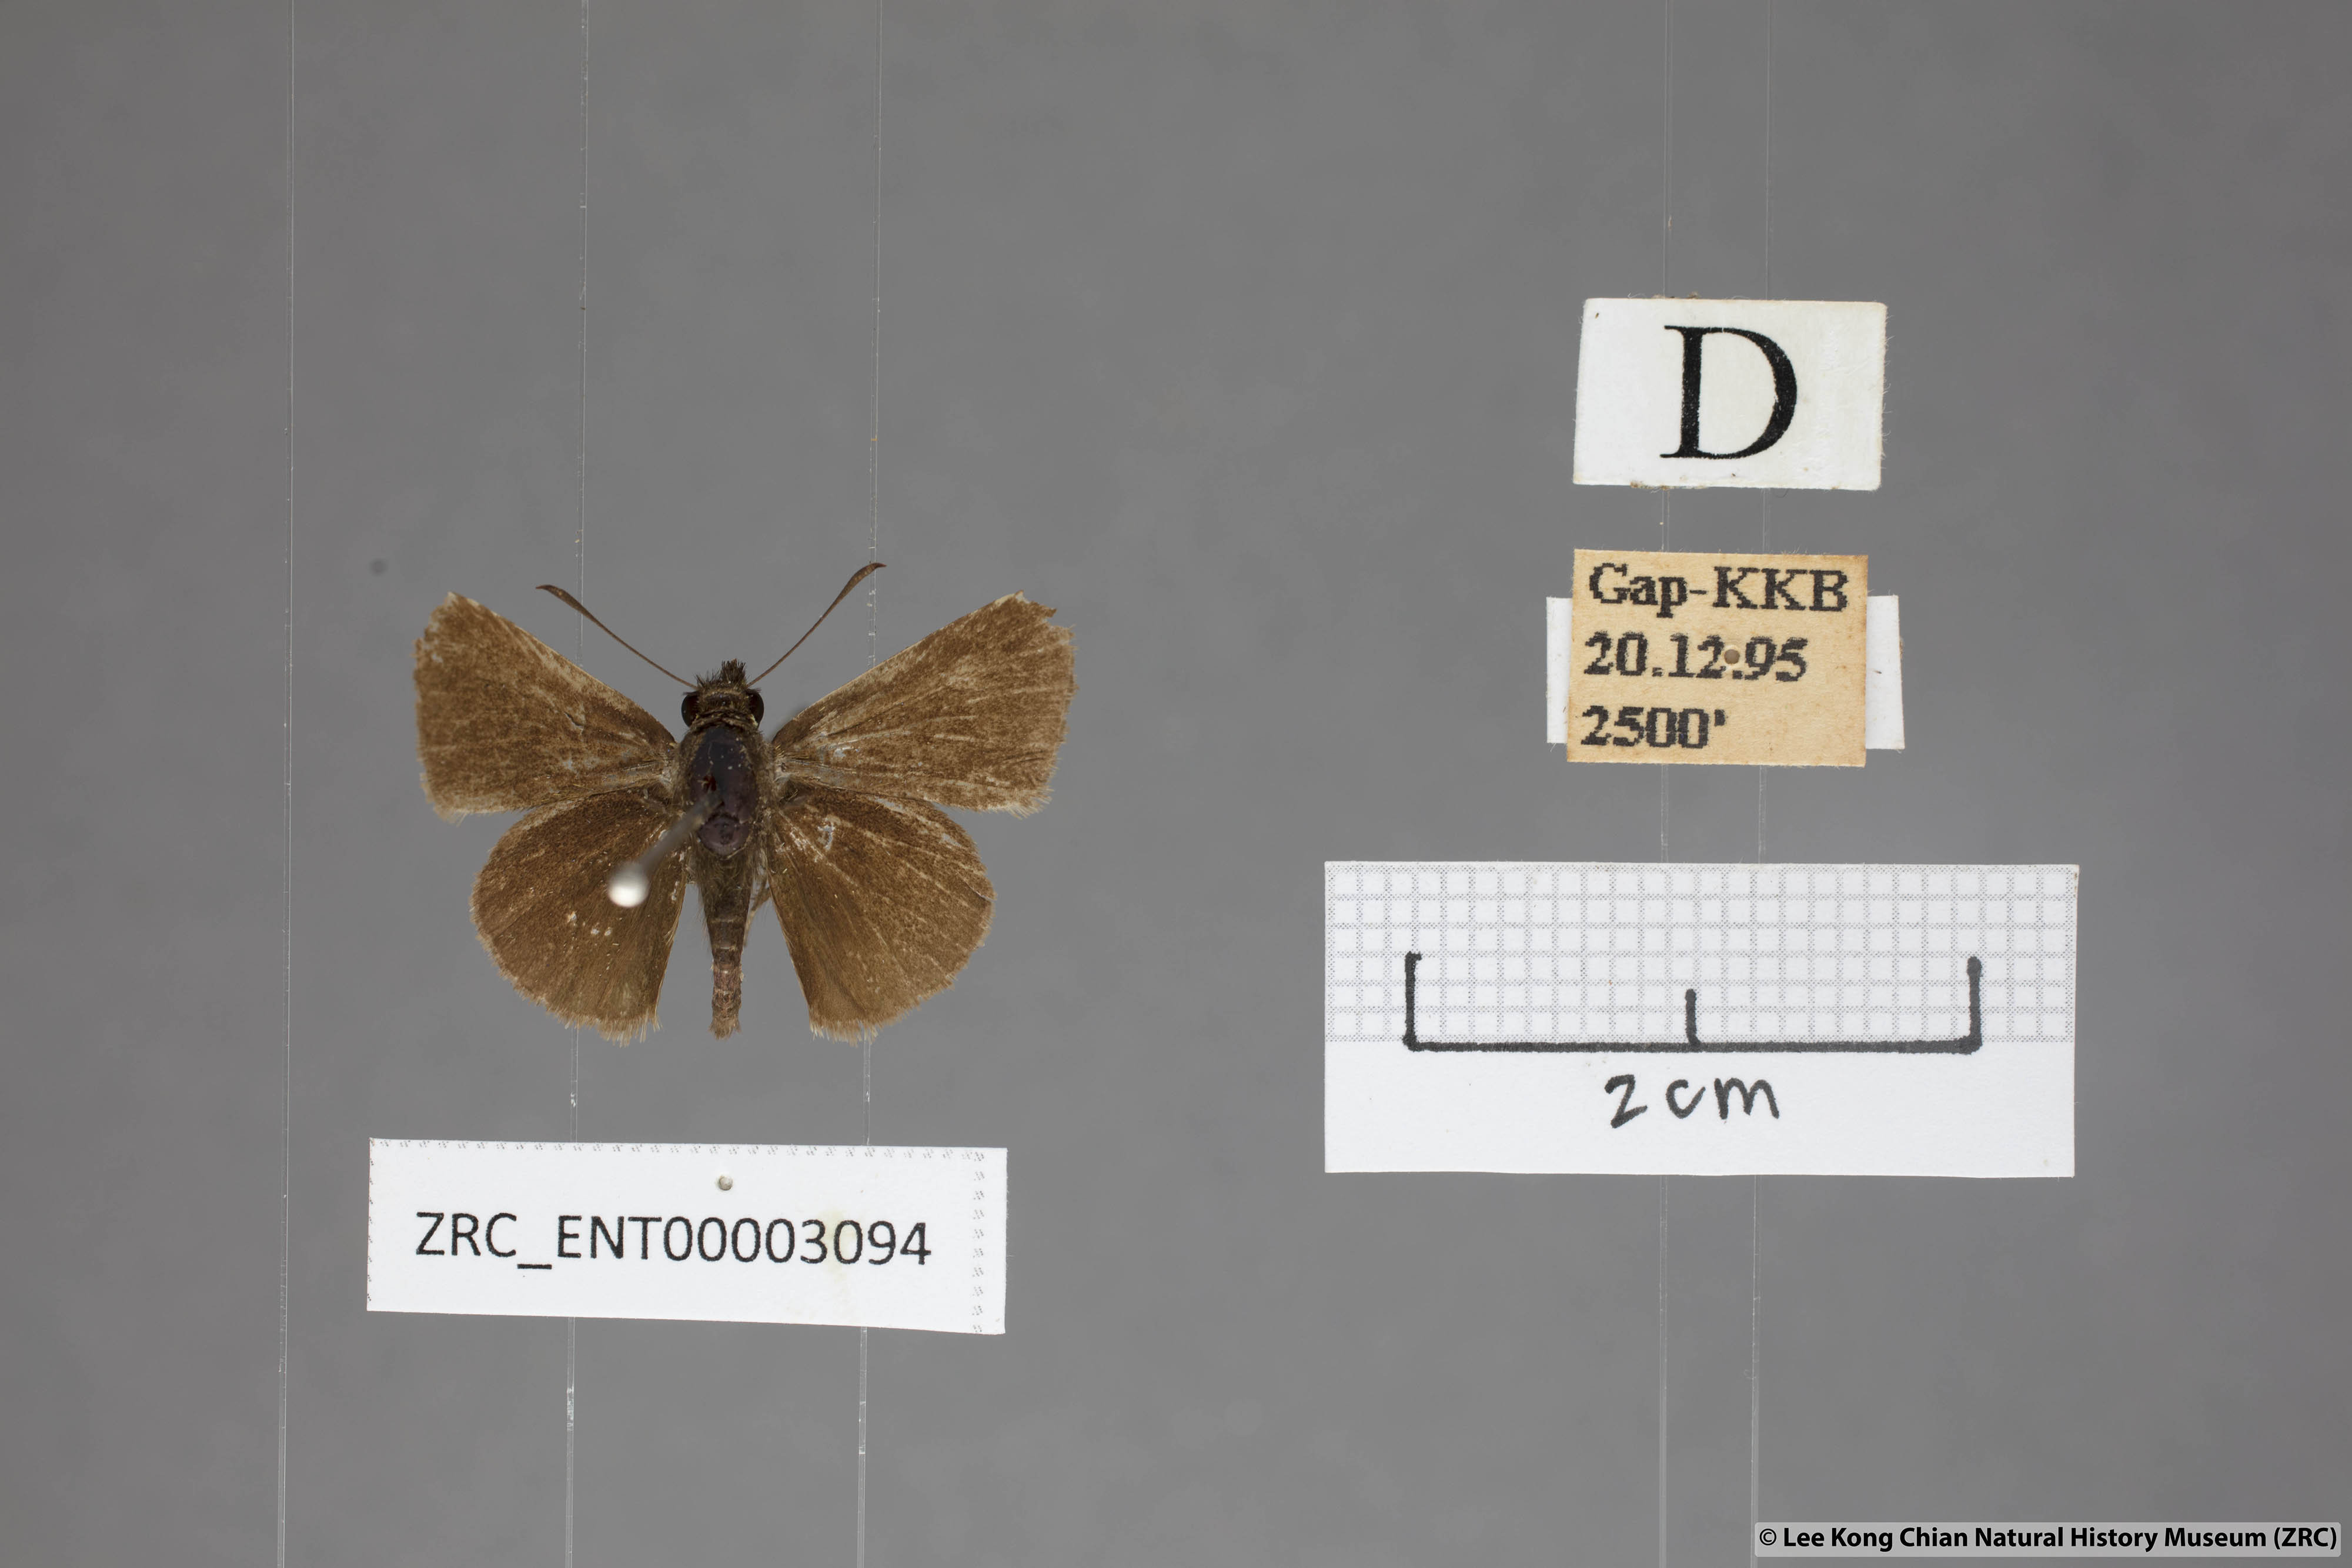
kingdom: Animalia
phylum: Arthropoda
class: Insecta
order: Lepidoptera
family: Hesperiidae
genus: Aeromachus
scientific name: Aeromachus jhora
